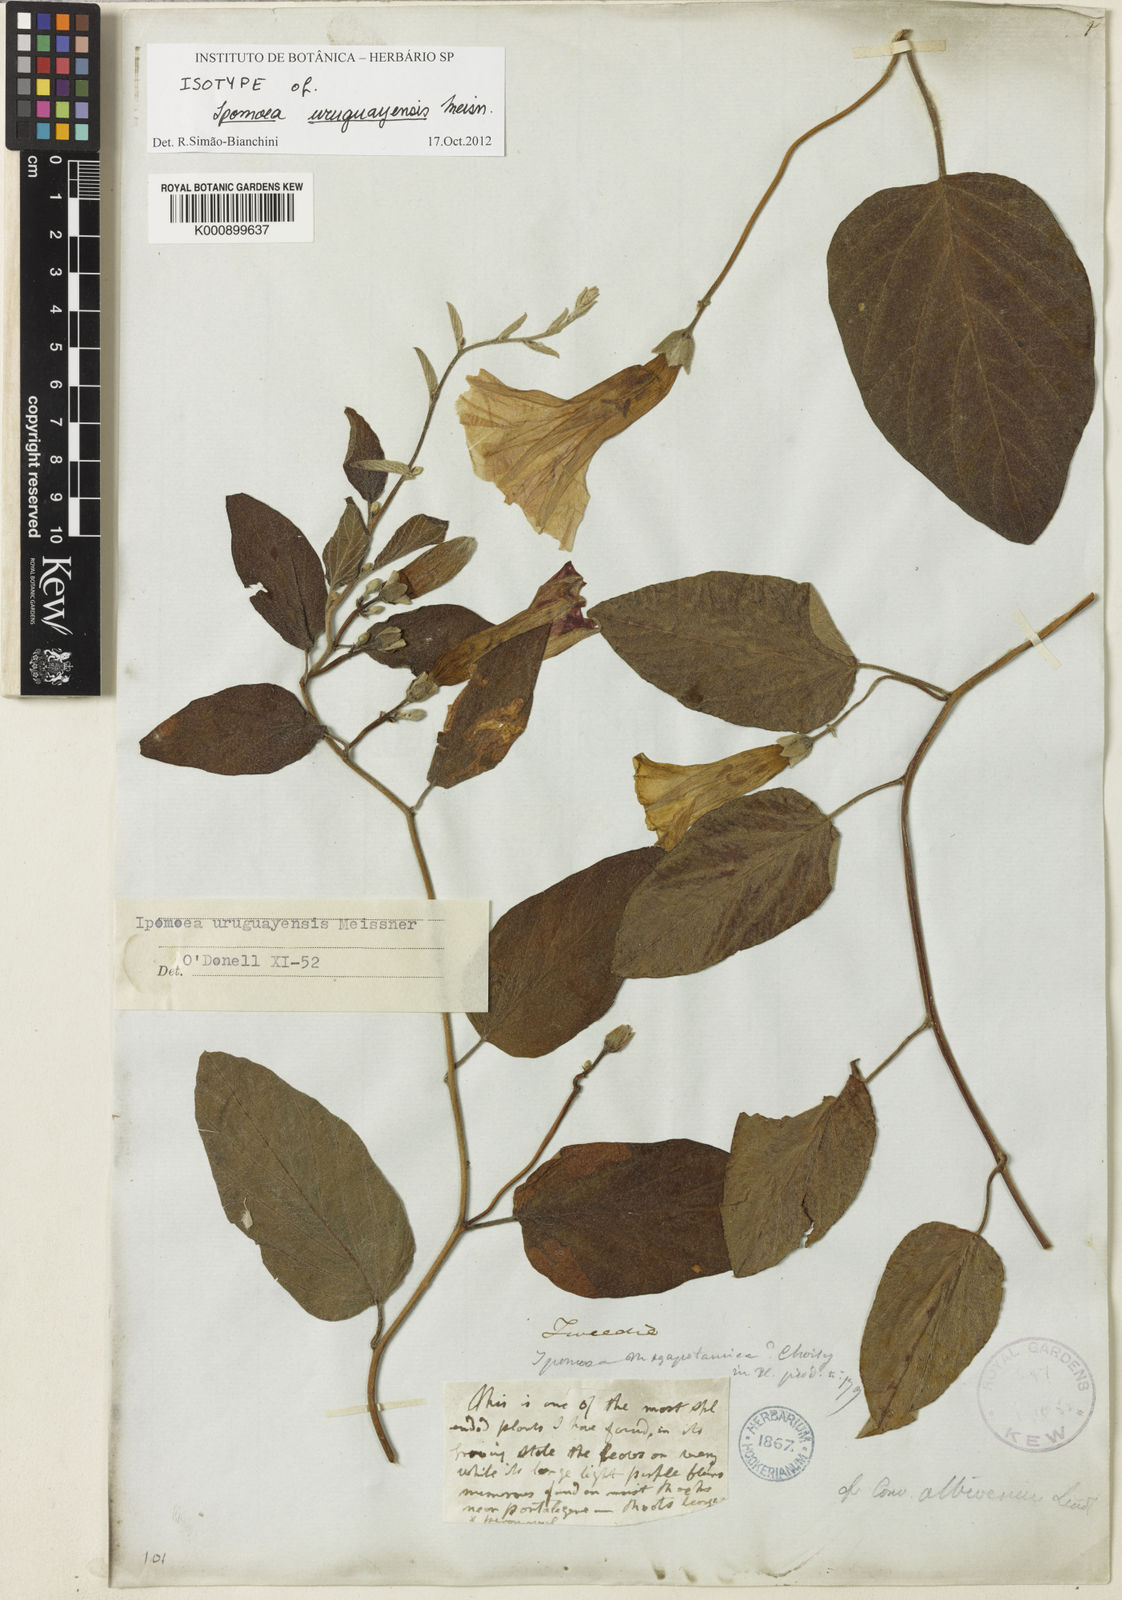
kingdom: Plantae
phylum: Tracheophyta
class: Magnoliopsida
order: Solanales
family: Convolvulaceae
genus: Ipomoea
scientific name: Ipomoea uruguayensis
